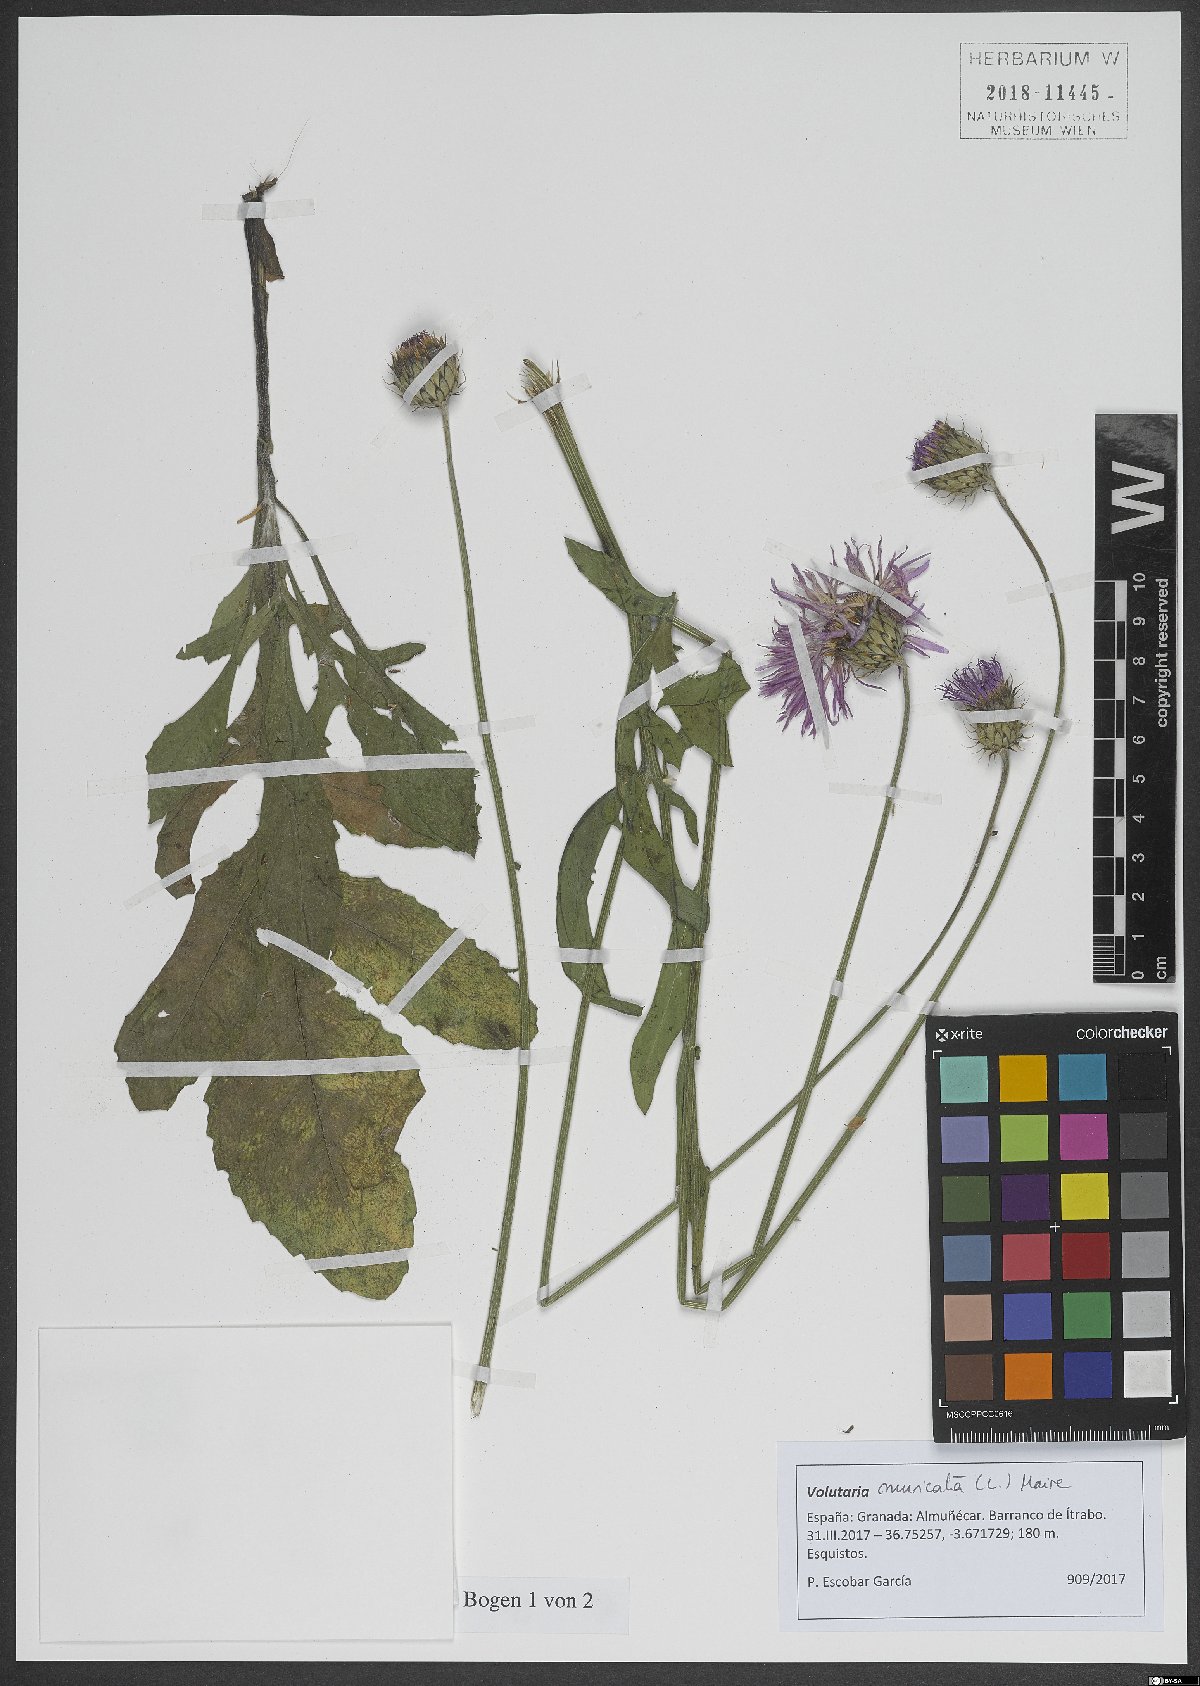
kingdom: Plantae
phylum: Tracheophyta
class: Magnoliopsida
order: Asterales
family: Asteraceae
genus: Volutaria
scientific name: Volutaria muricata
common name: Morocco knapweed
